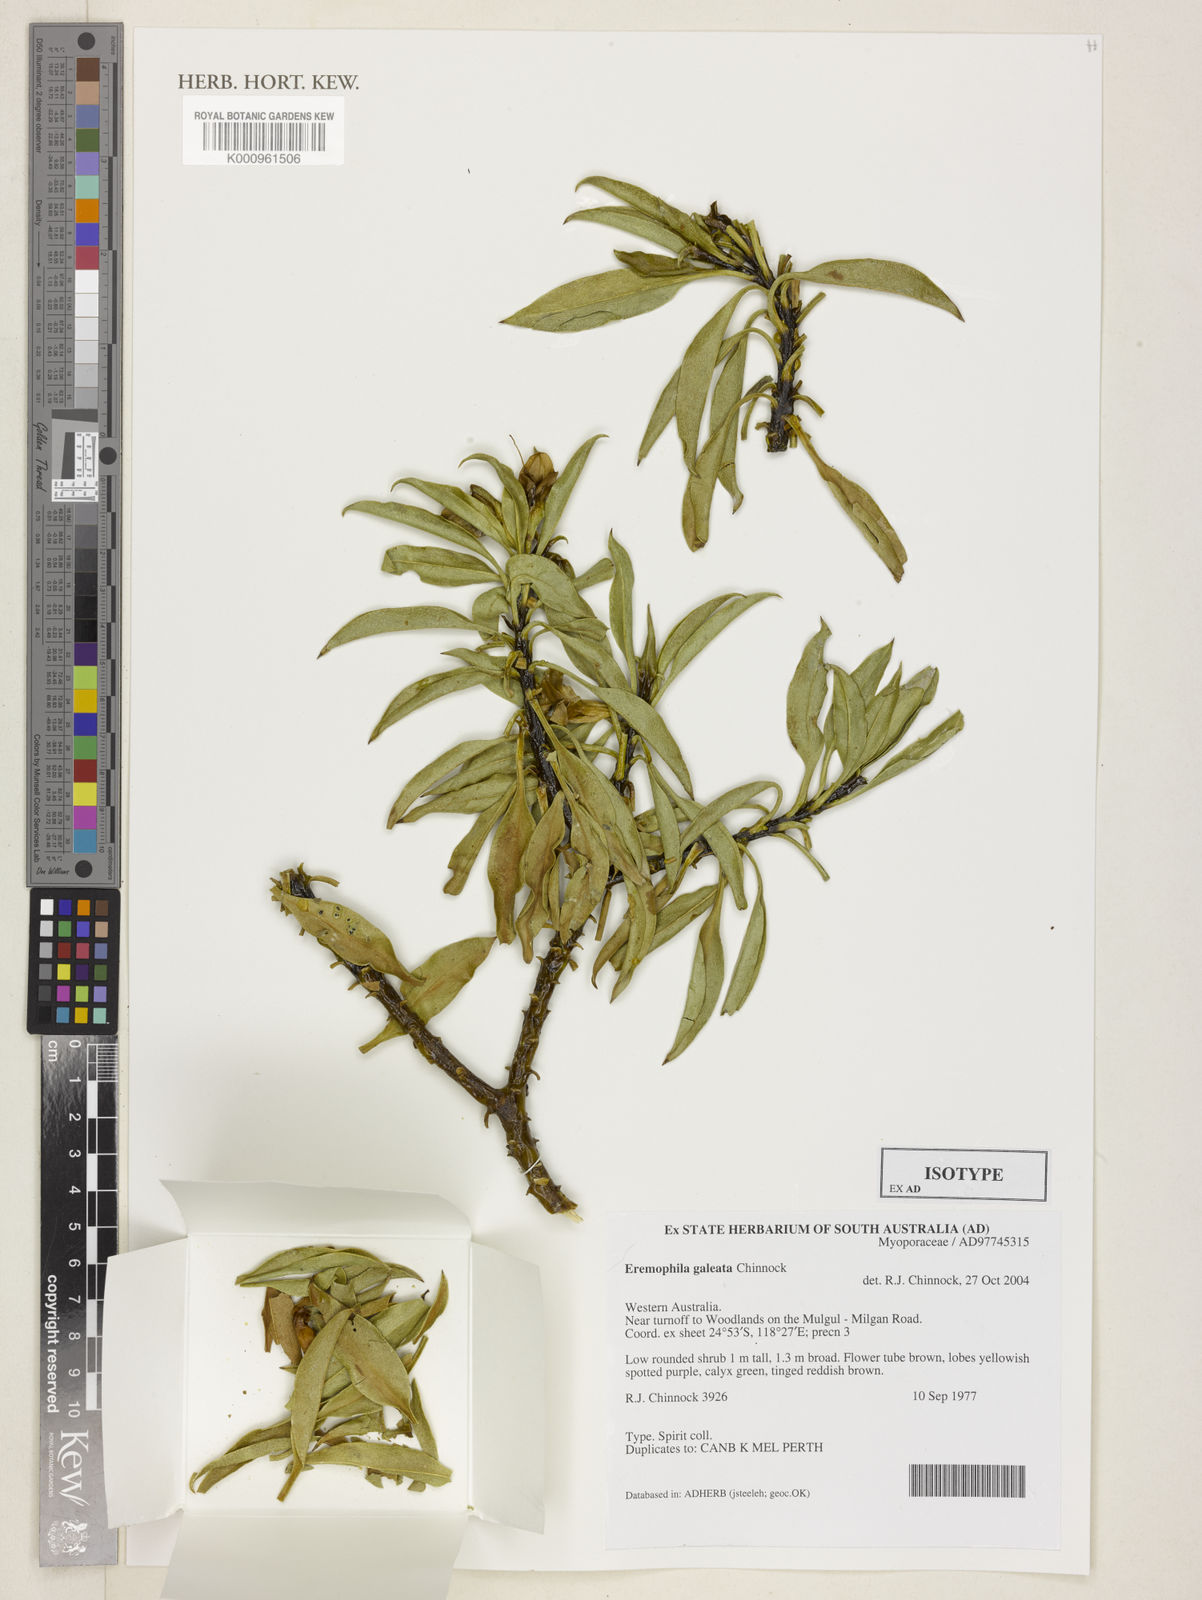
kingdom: Plantae
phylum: Tracheophyta
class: Magnoliopsida
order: Lamiales
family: Scrophulariaceae
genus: Eremophila
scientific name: Eremophila galeata
